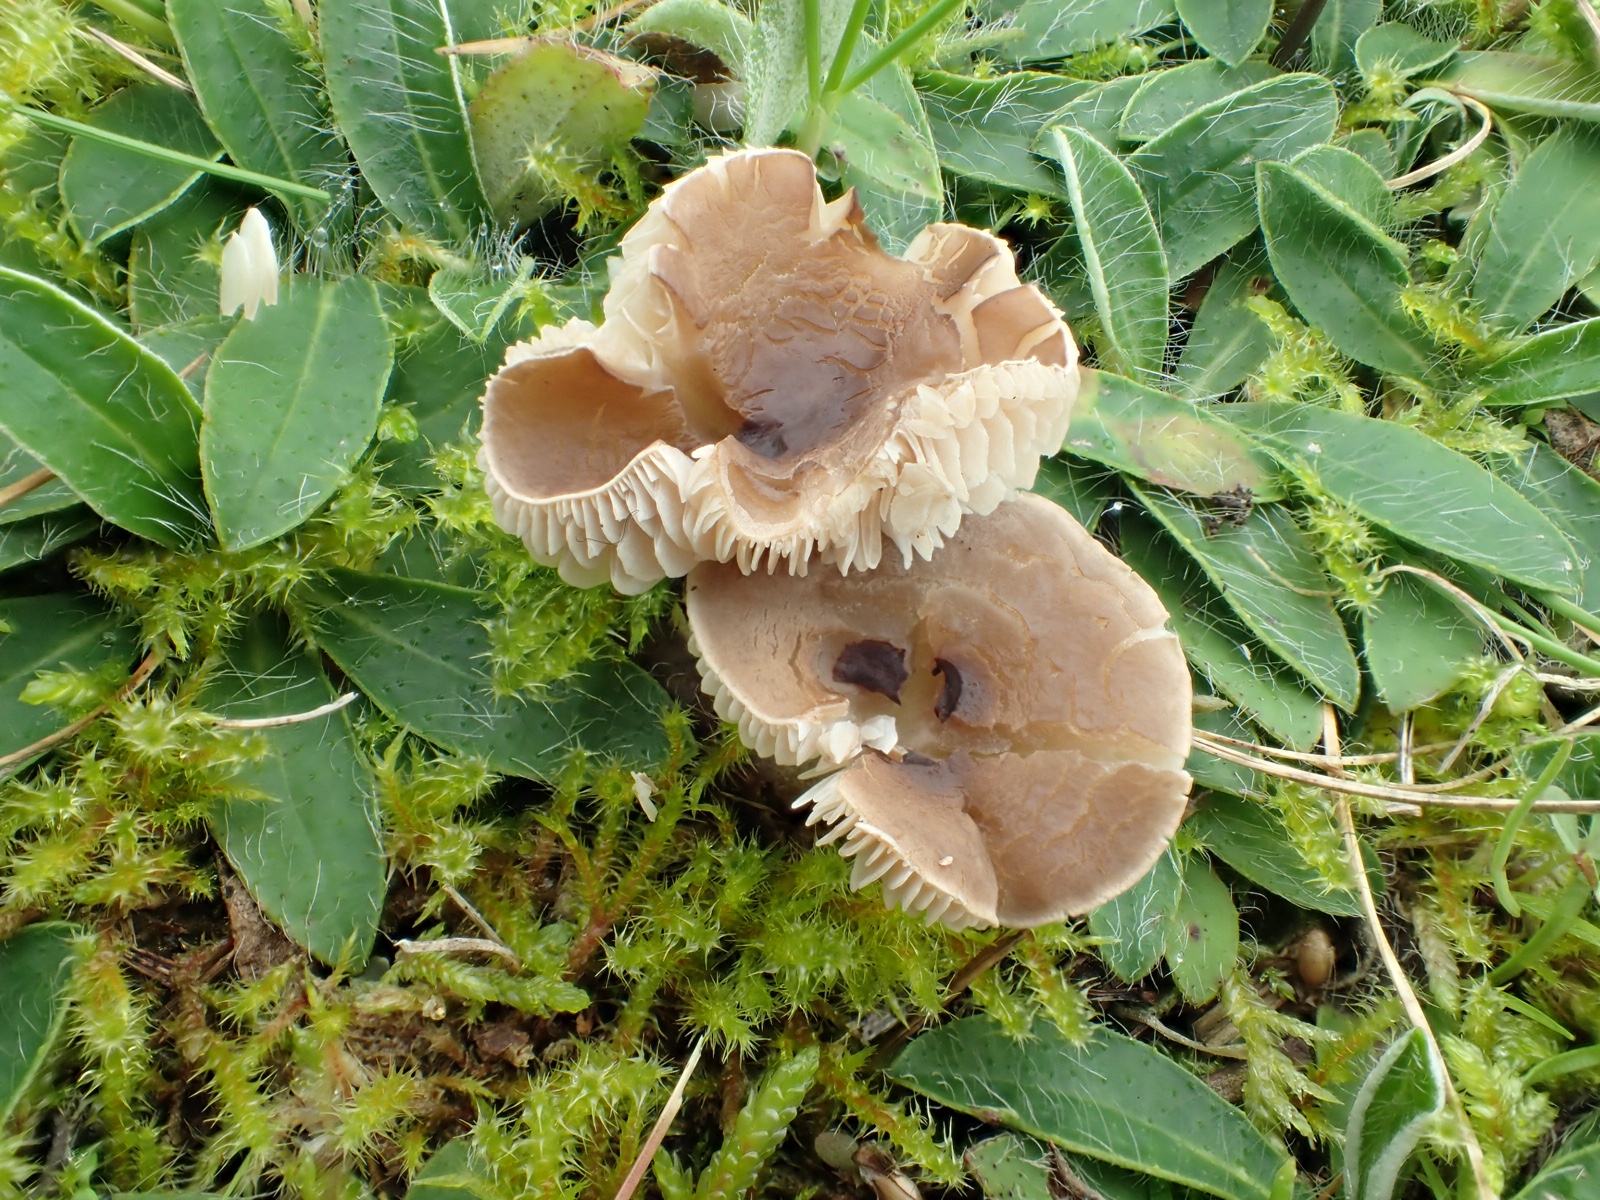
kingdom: Fungi
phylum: Basidiomycota
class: Agaricomycetes
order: Agaricales
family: Tricholomataceae
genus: Dermoloma
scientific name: Dermoloma cuneifolium
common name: eng-nonnehat
